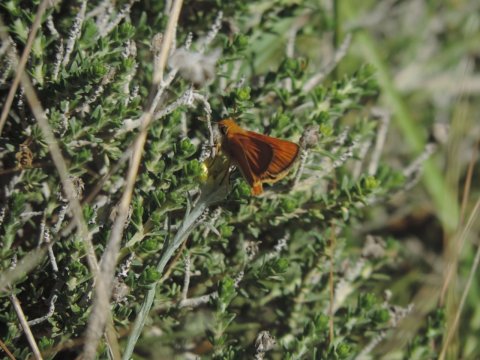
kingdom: Animalia
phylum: Arthropoda
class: Insecta
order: Lepidoptera
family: Hesperiidae
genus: Thymelicus
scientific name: Thymelicus acteon
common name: Lulworth Skipper
